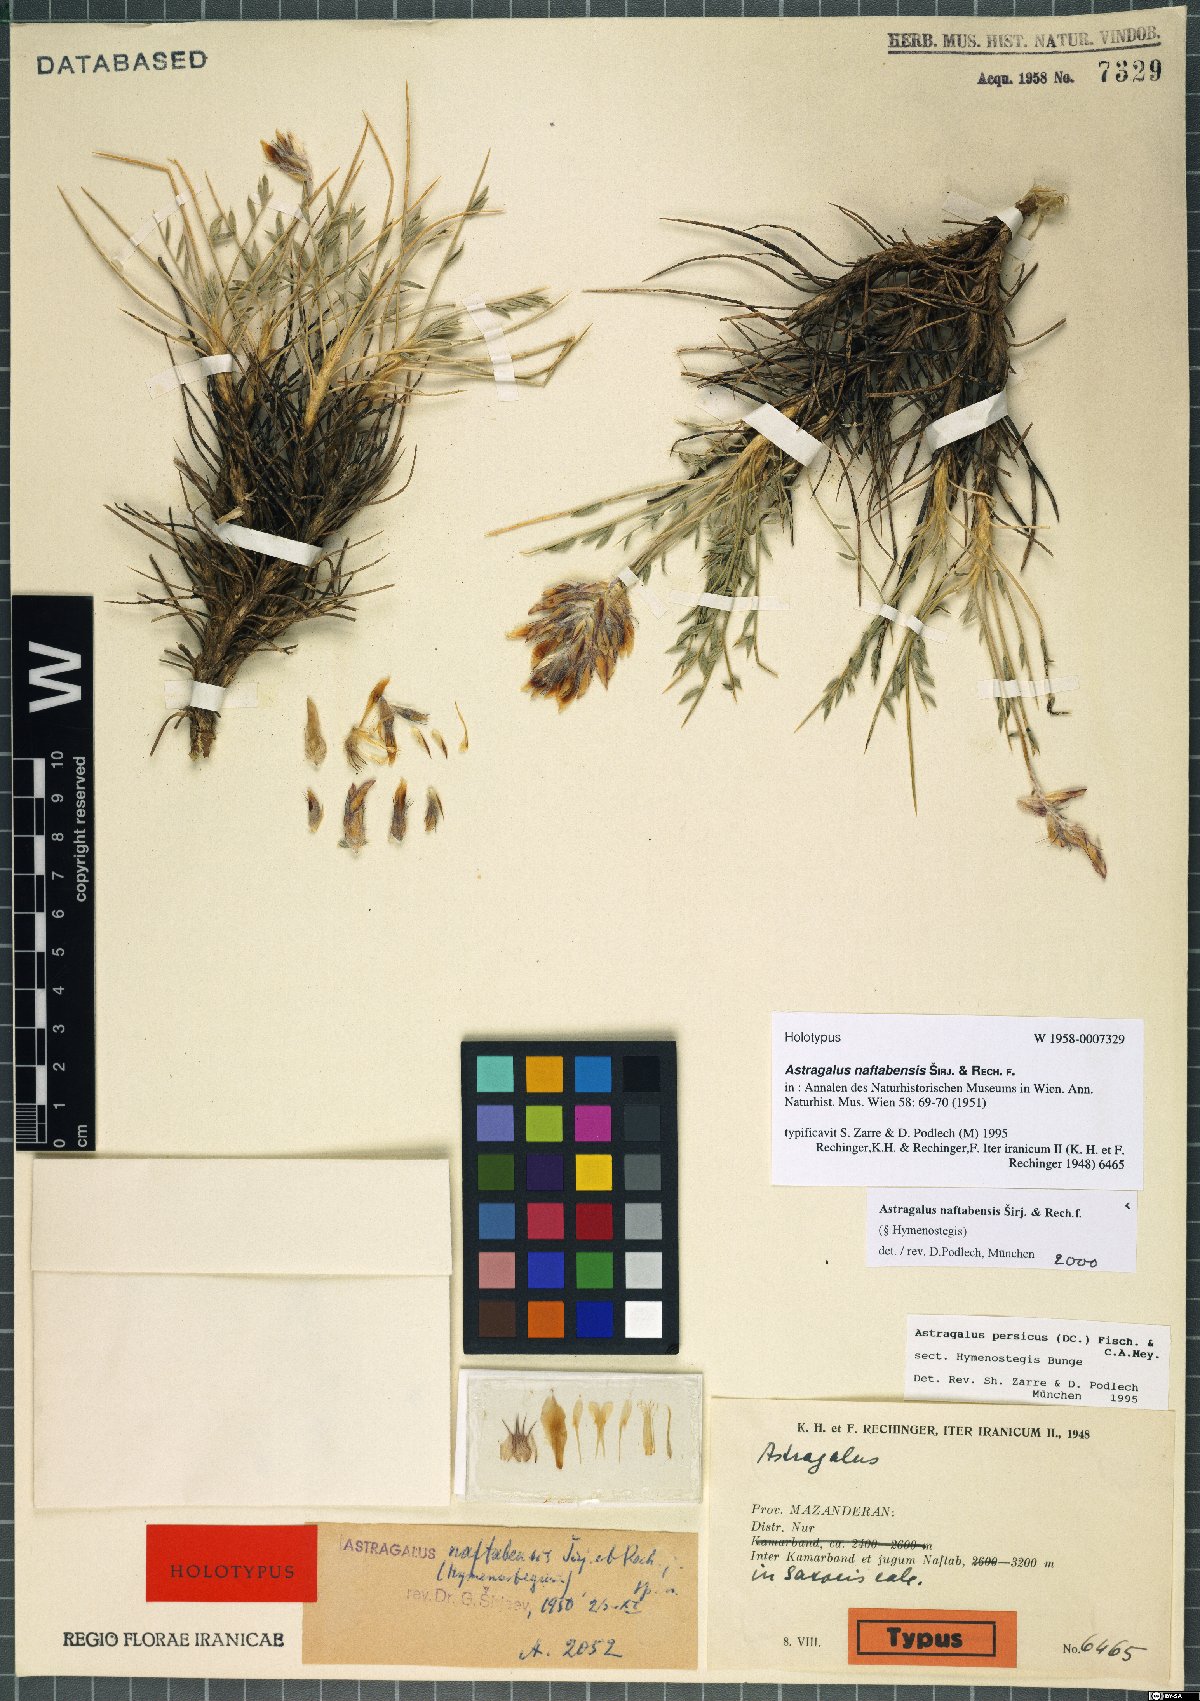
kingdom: Plantae
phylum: Tracheophyta
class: Magnoliopsida
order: Fabales
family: Fabaceae
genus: Astragalus
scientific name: Astragalus naftabensis
